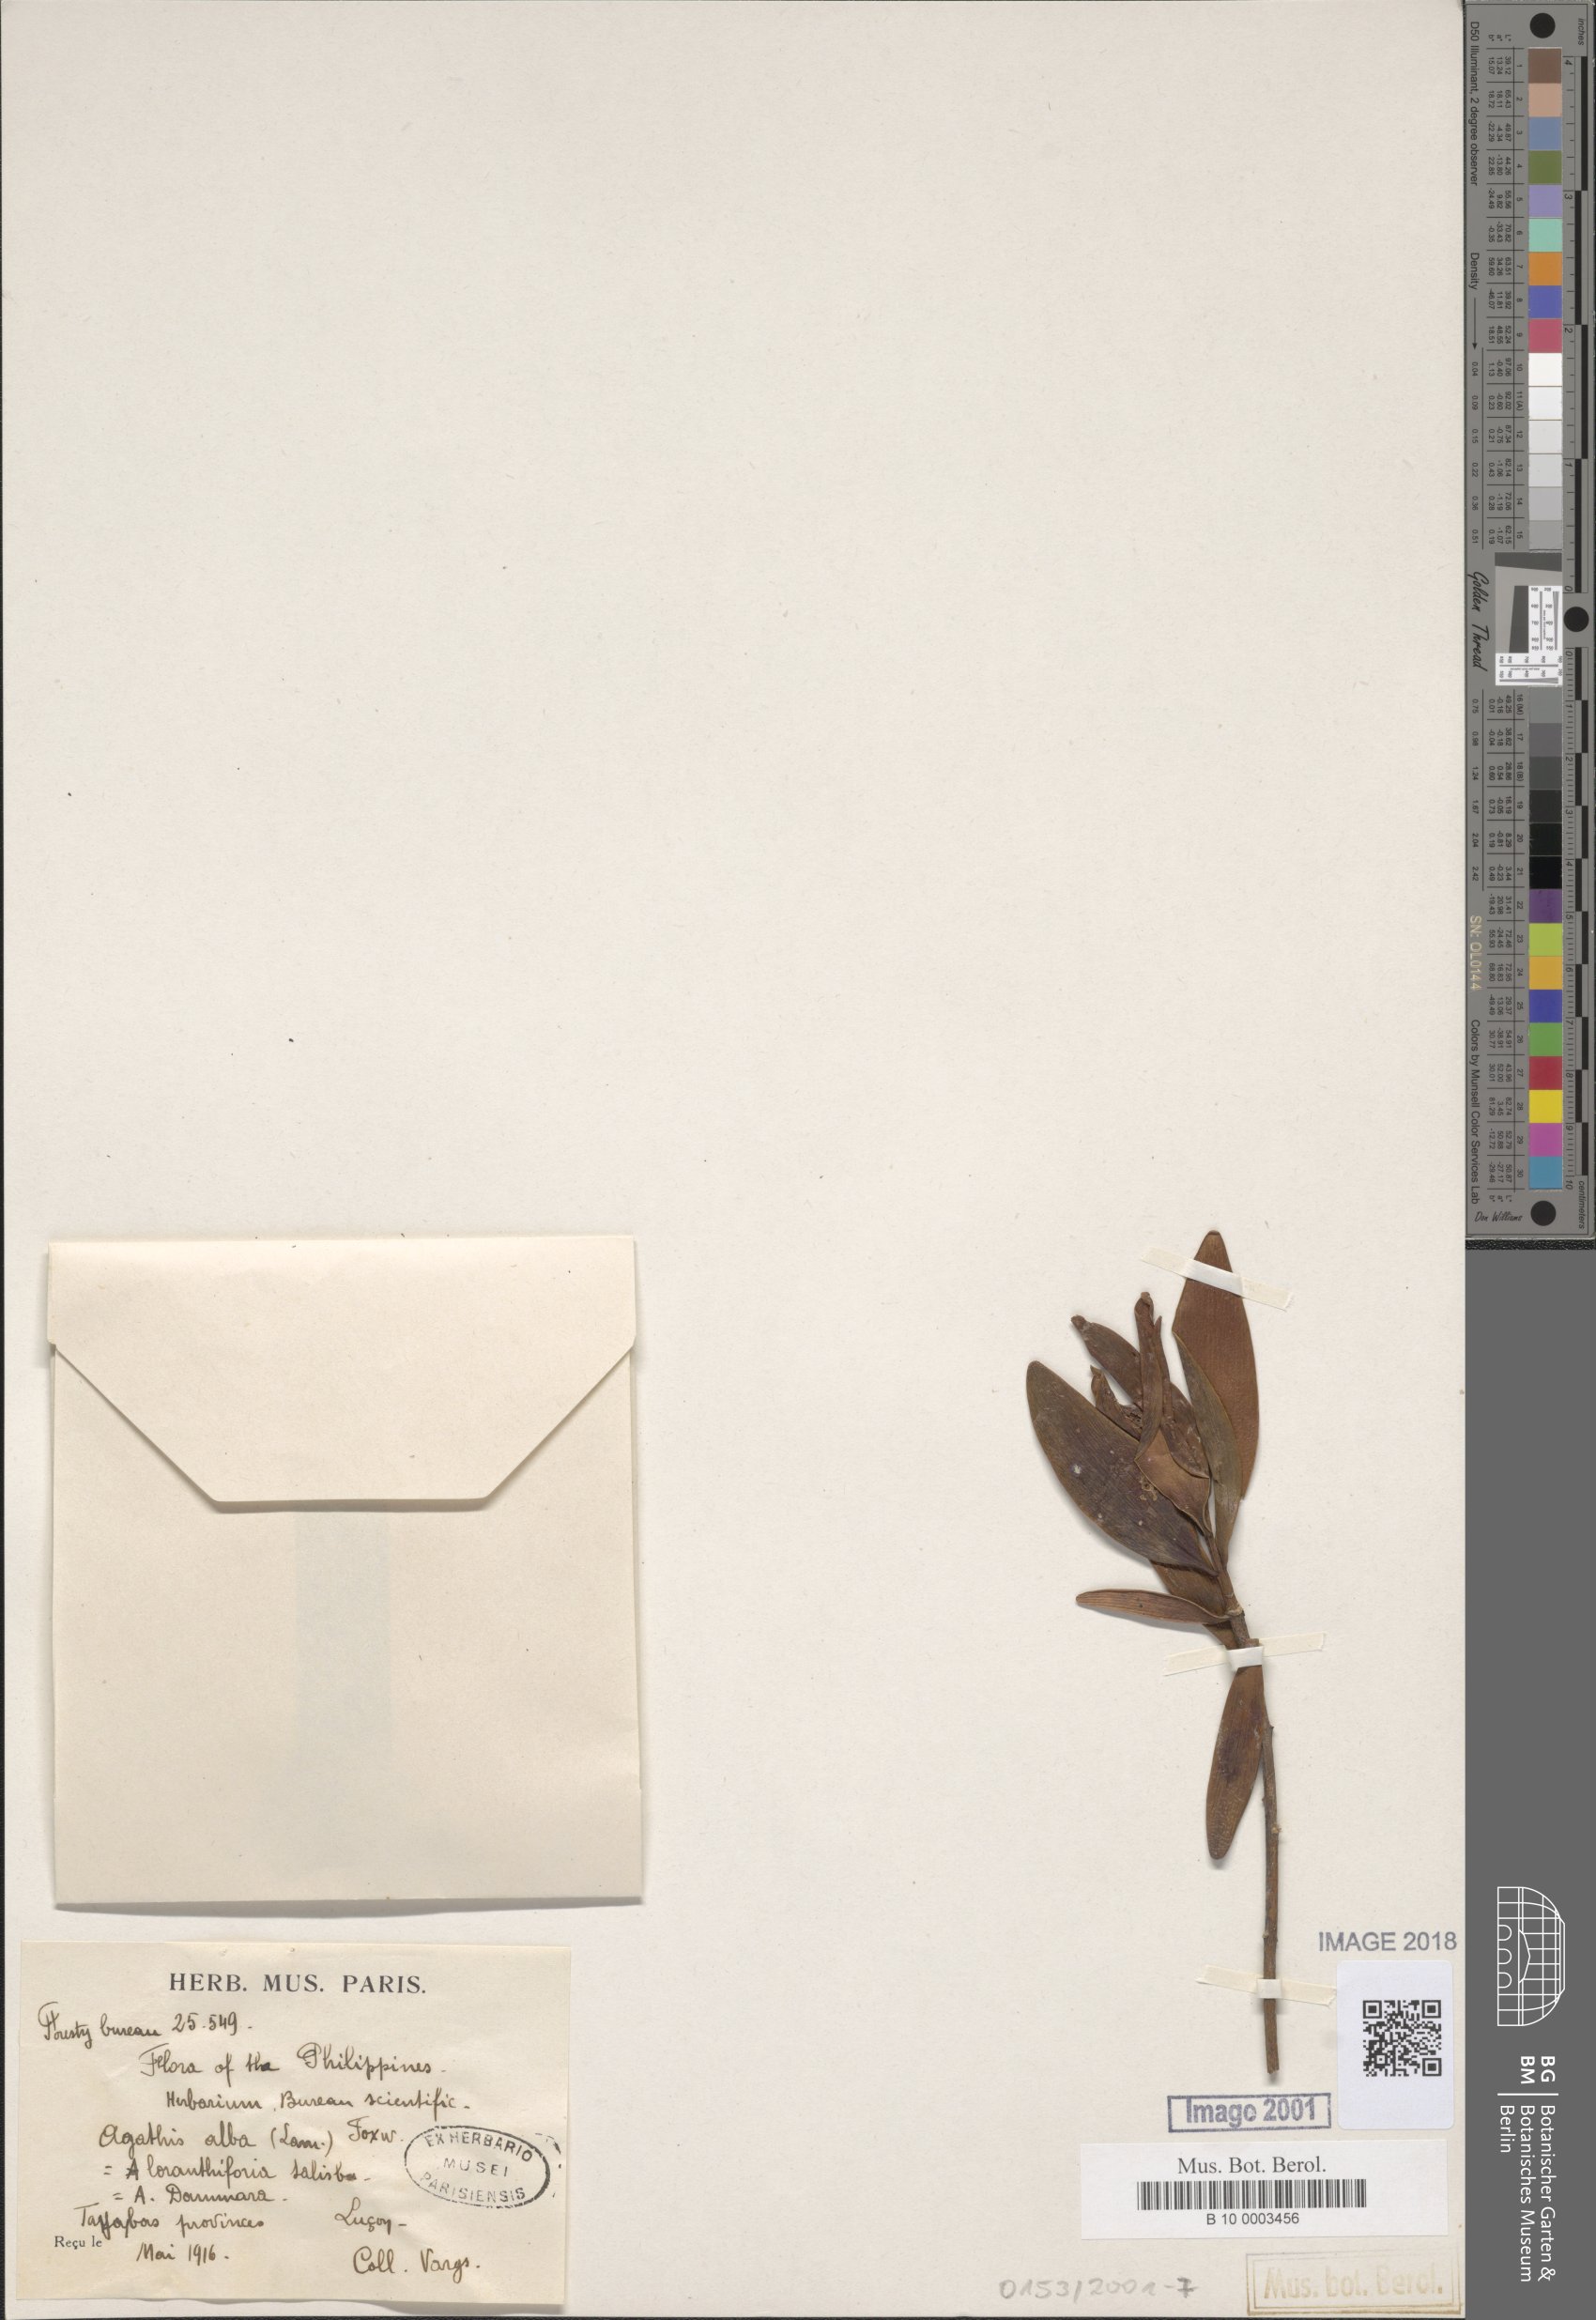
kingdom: Plantae
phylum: Tracheophyta
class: Pinopsida
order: Pinales
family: Araucariaceae
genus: Agathis
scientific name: Agathis dammara
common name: Amboina pitch tree
